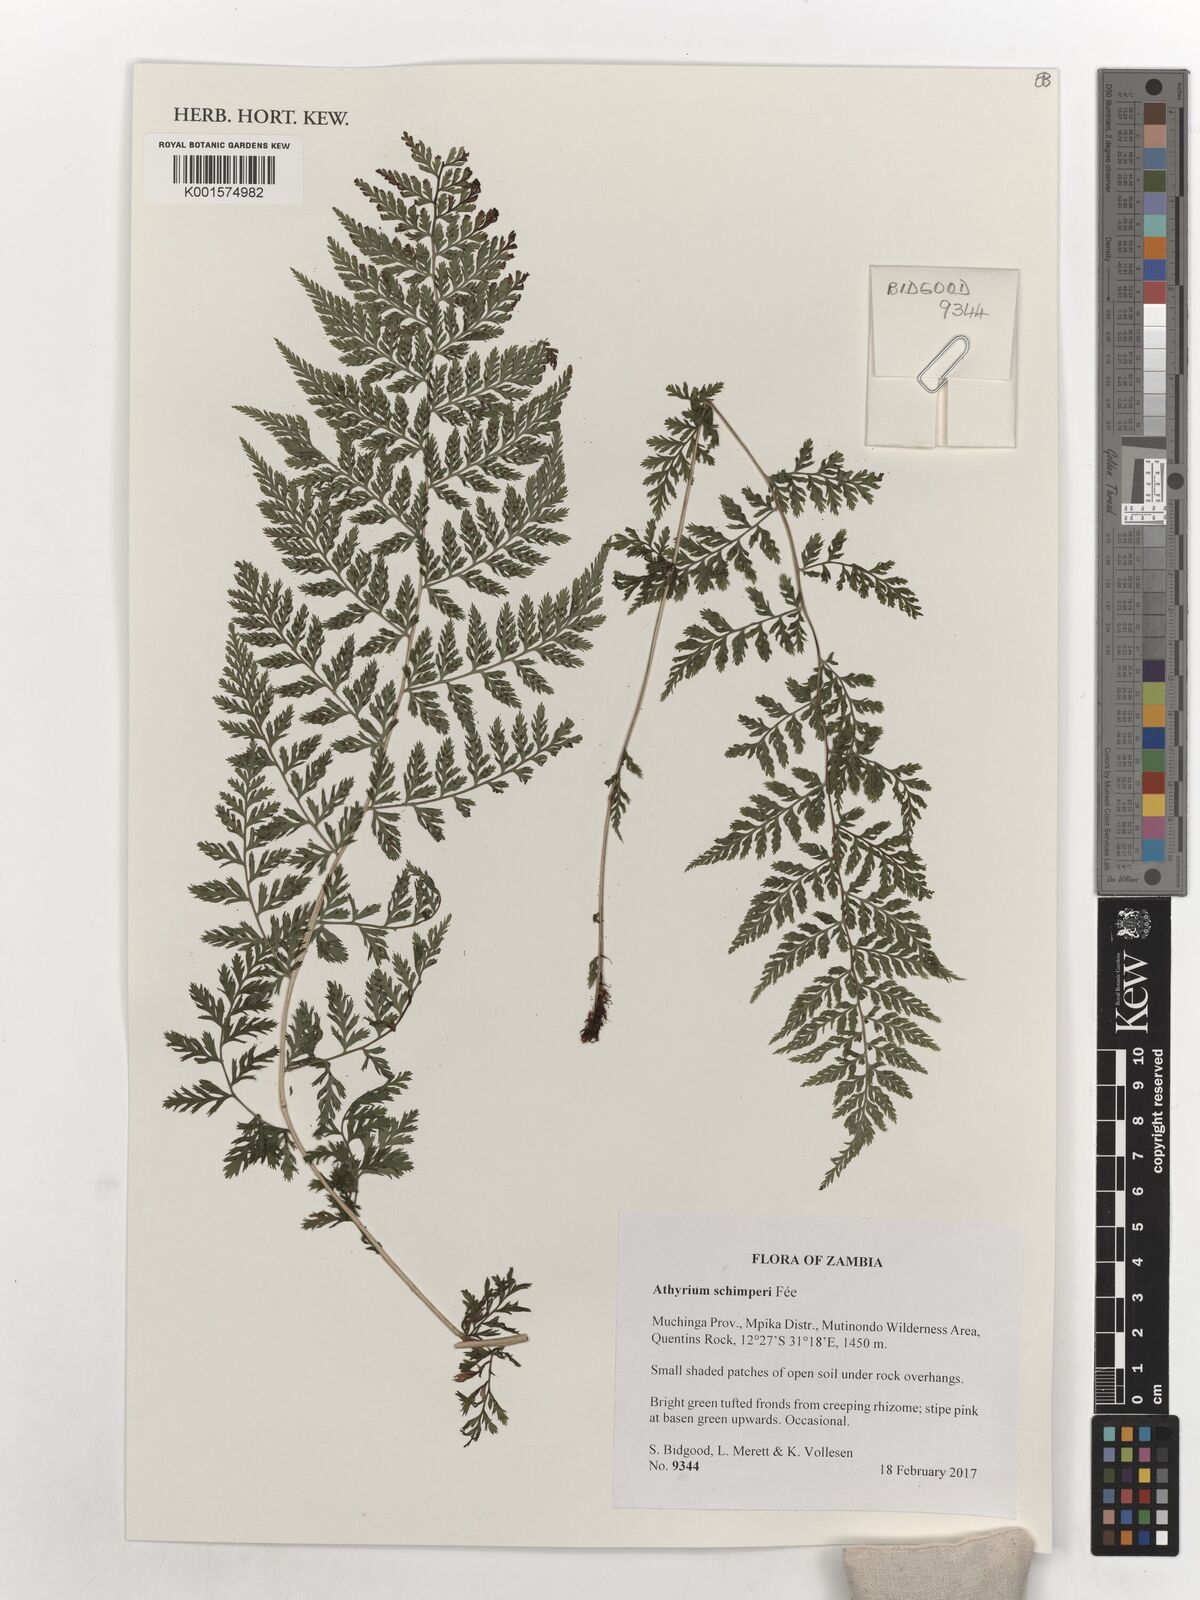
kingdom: Plantae
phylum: Tracheophyta
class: Polypodiopsida
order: Polypodiales
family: Athyriaceae
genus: Athyrium
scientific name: Athyrium schimperi
